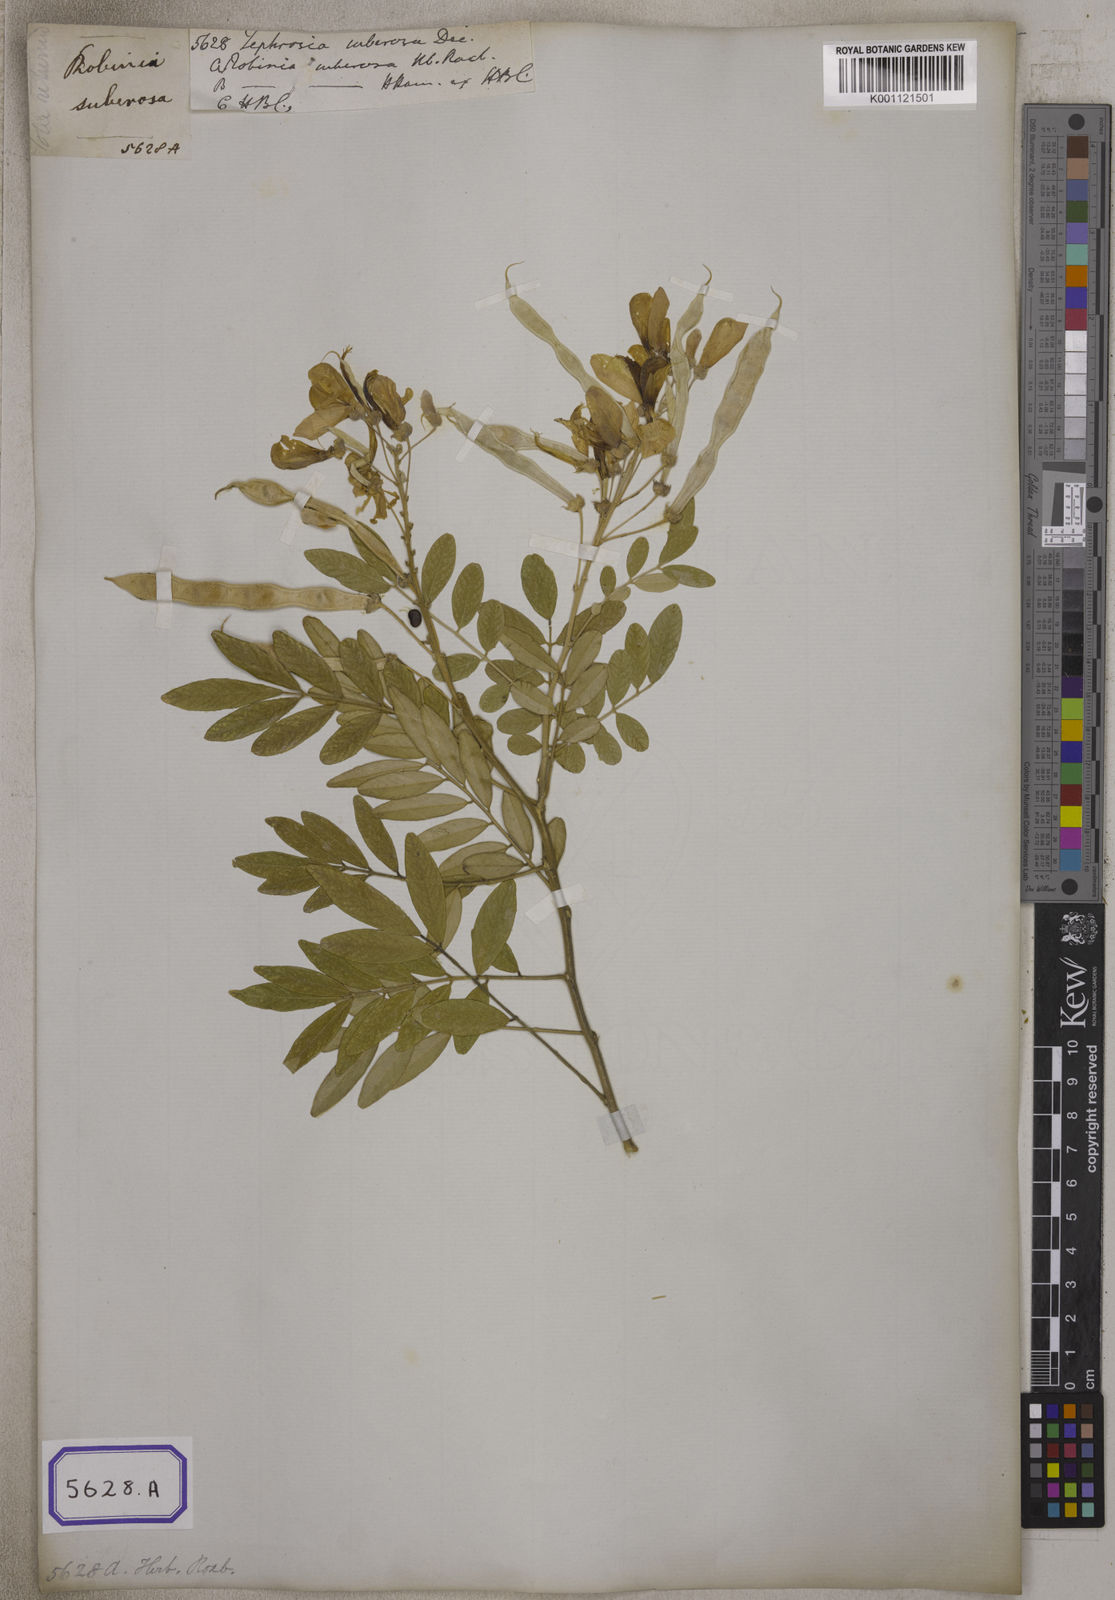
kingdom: Plantae
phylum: Tracheophyta
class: Magnoliopsida
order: Fabales
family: Fabaceae
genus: Mundulea
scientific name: Mundulea sericea
